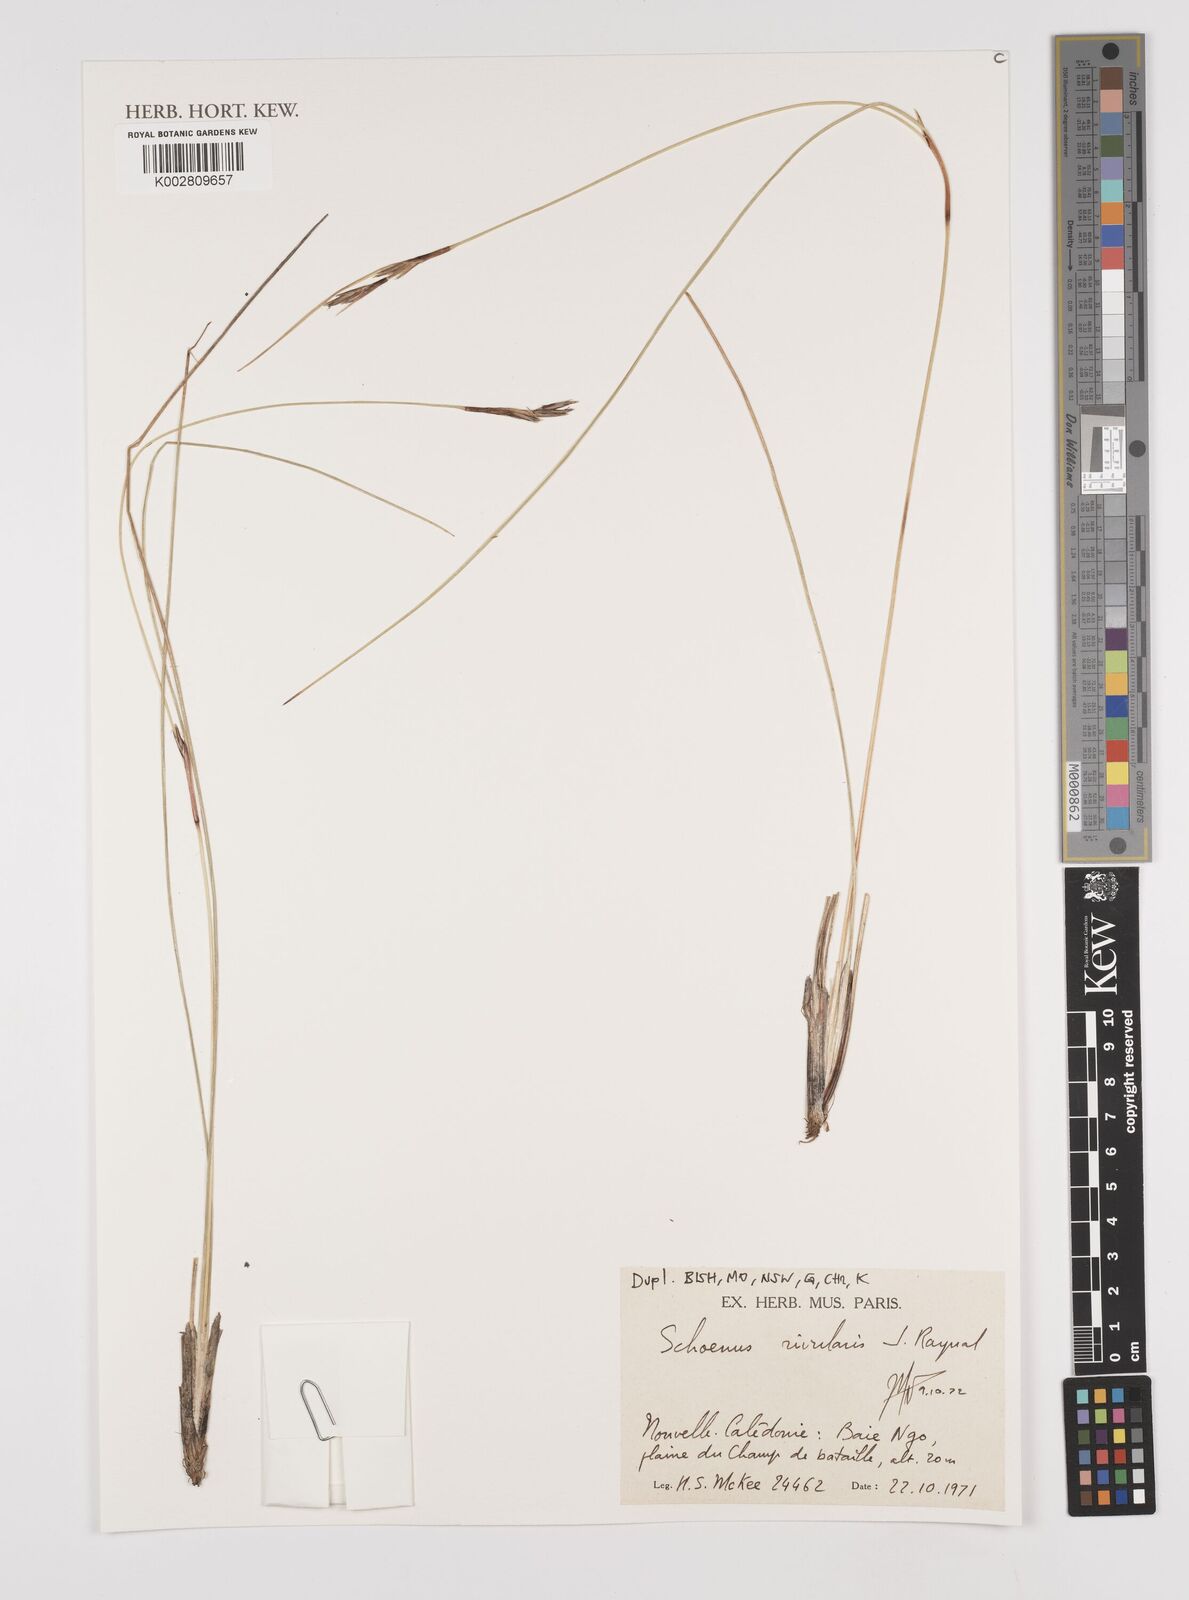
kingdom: Plantae
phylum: Tracheophyta
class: Liliopsida
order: Poales
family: Cyperaceae
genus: Schoenus
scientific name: Schoenus rivularis
